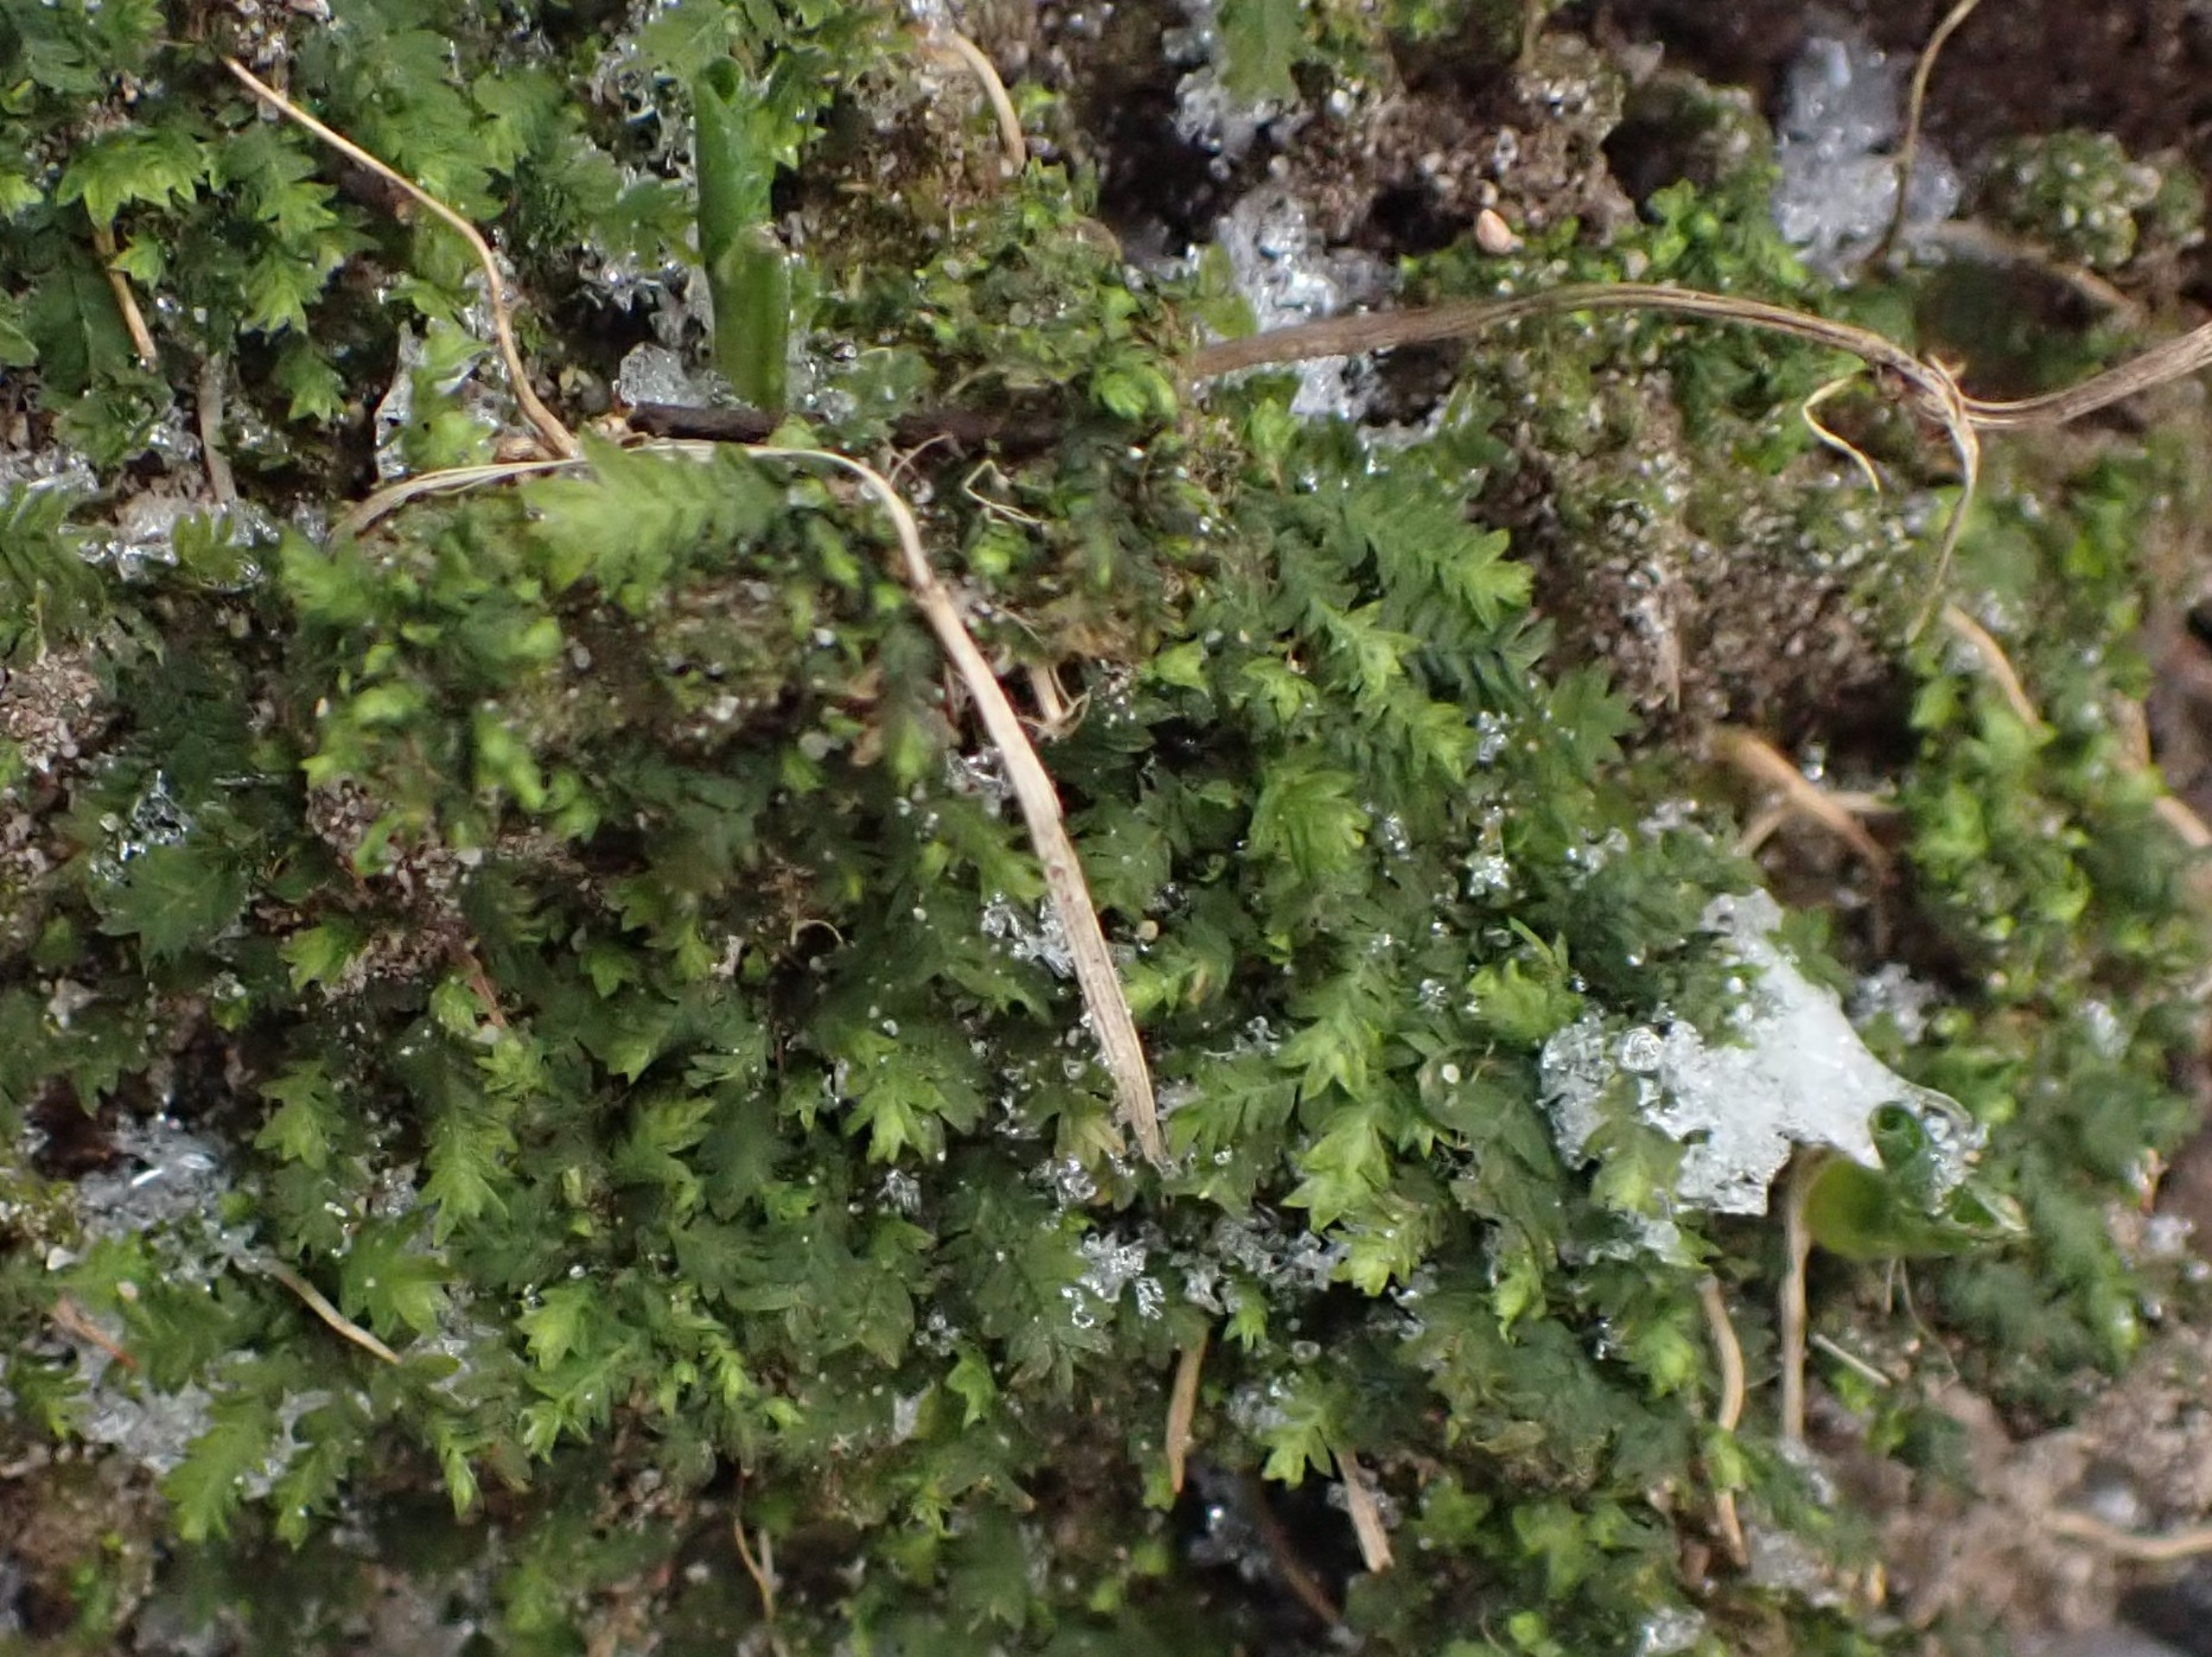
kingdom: Plantae
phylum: Bryophyta
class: Bryopsida
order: Dicranales
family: Fissidentaceae
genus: Fissidens
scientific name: Fissidens taxifolius
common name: Taksbladet rademos
